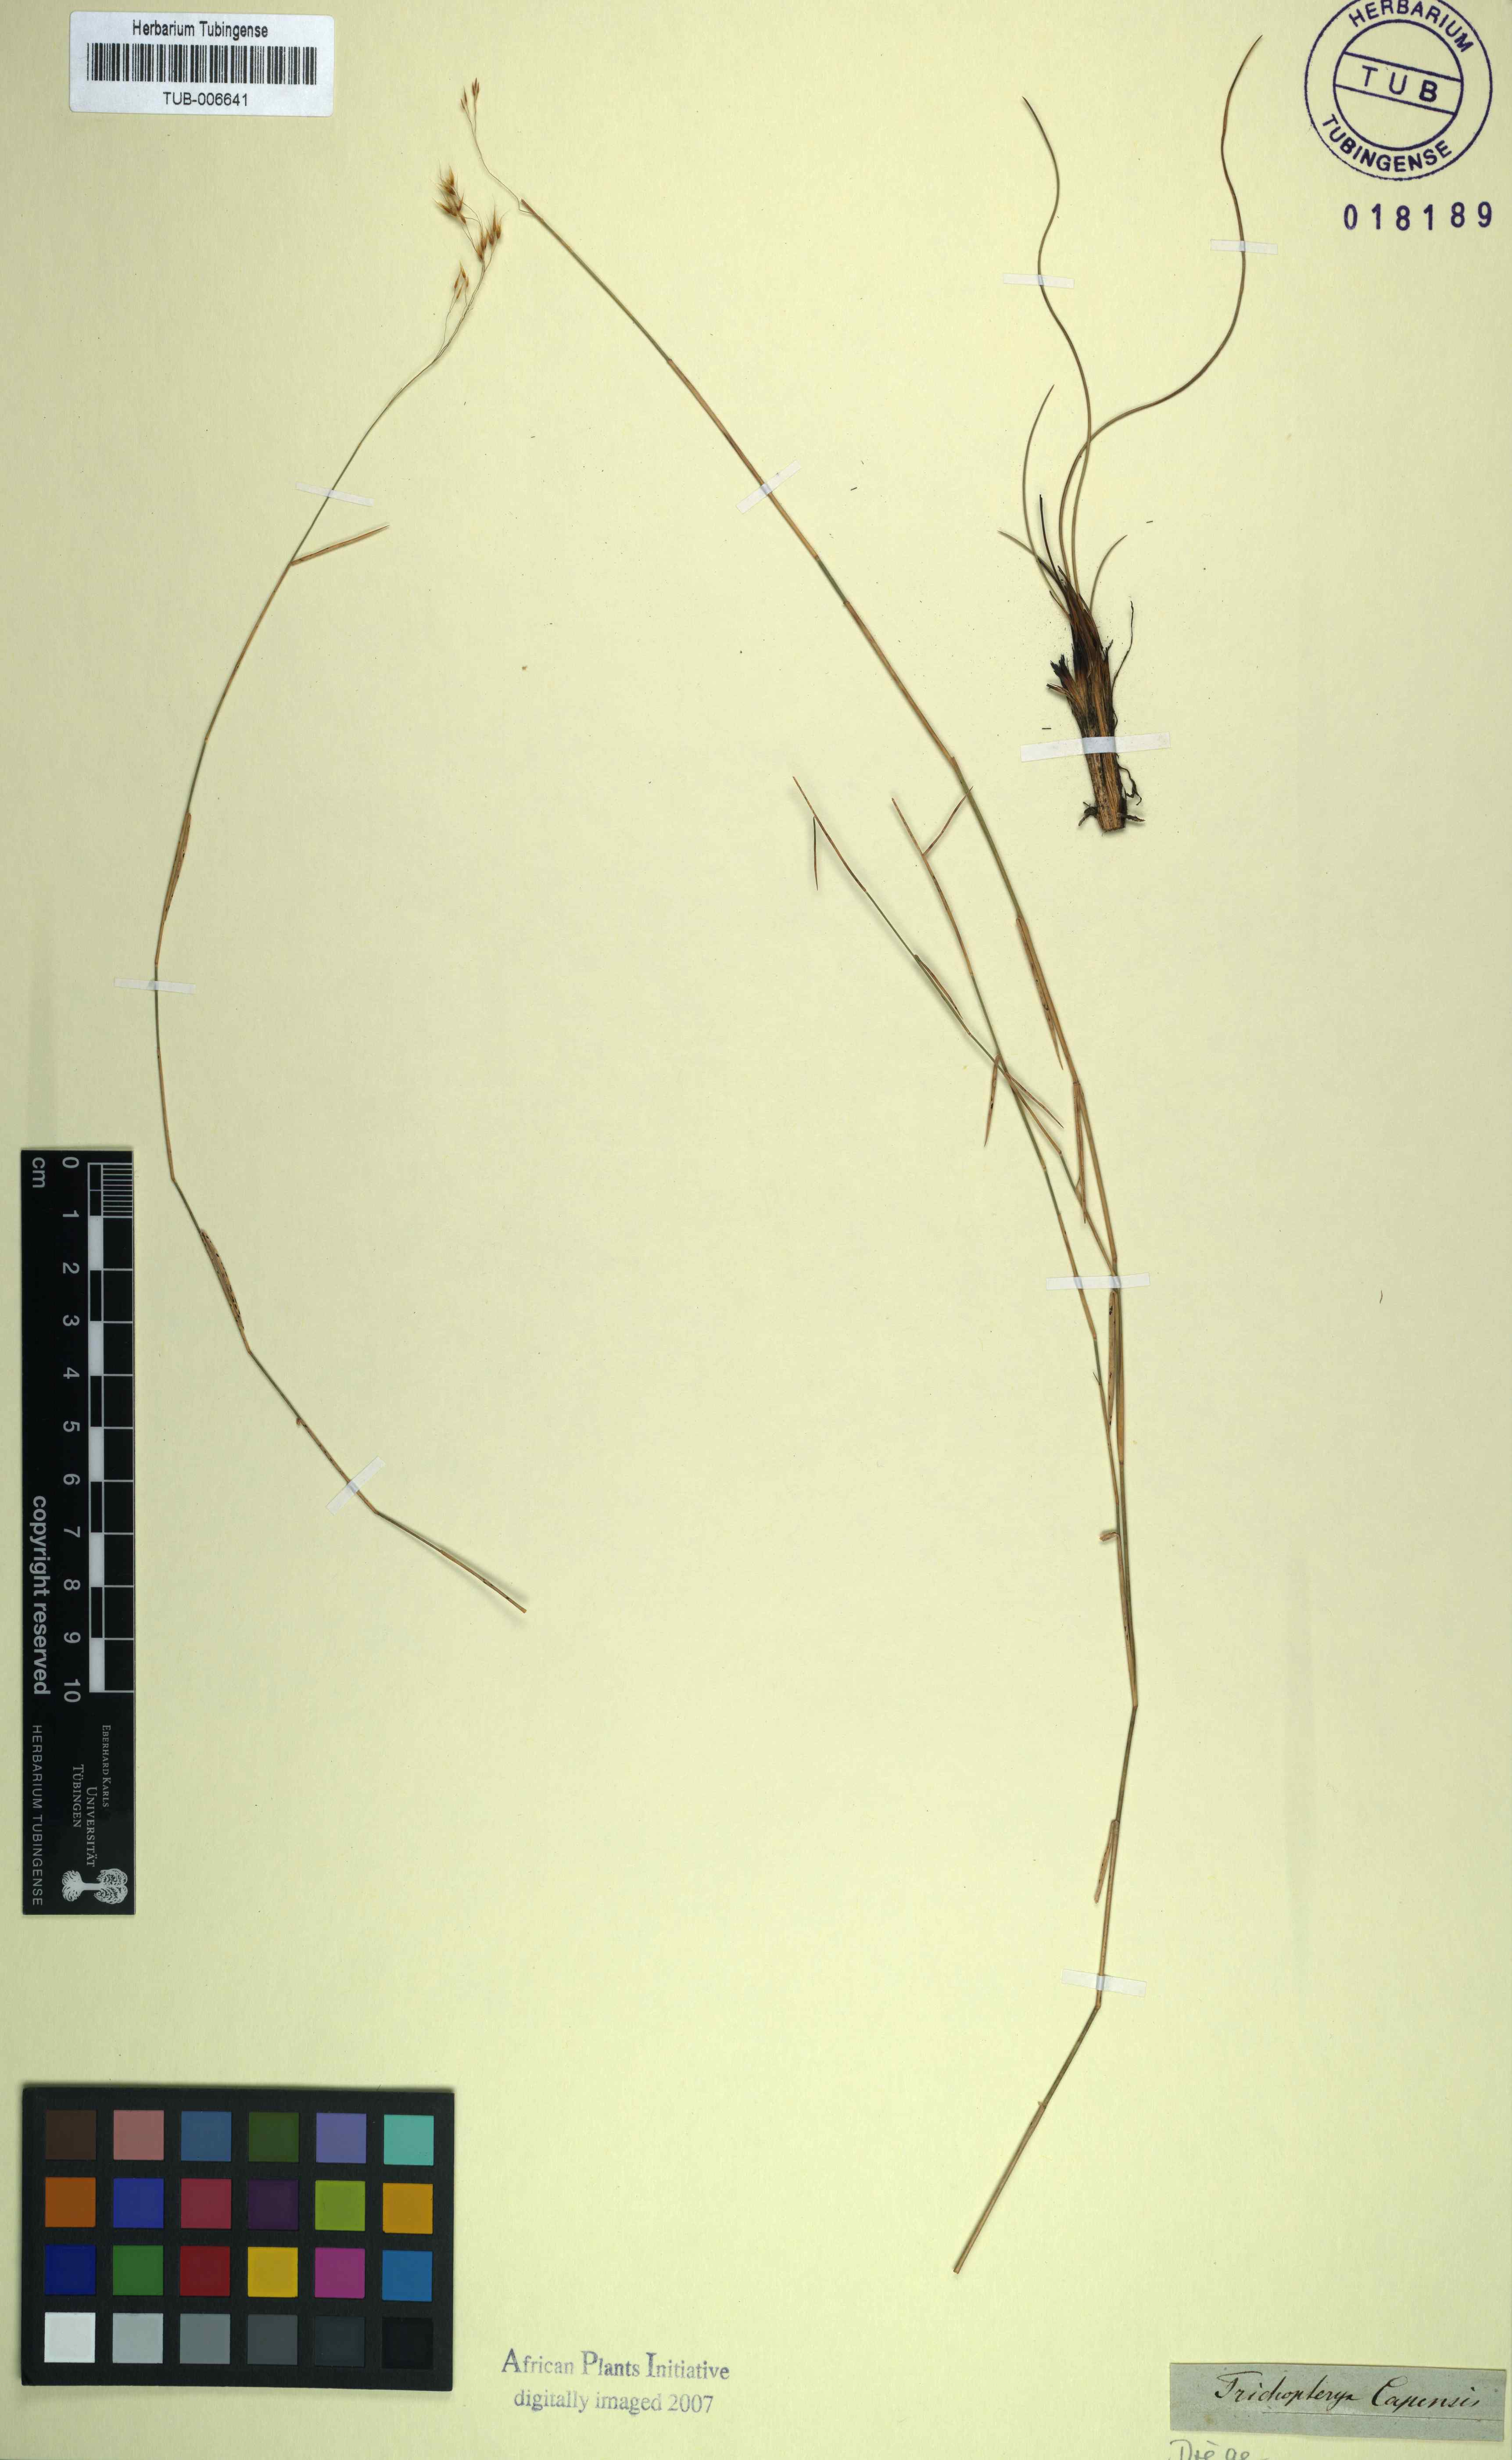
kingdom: Plantae
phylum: Tracheophyta
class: Liliopsida
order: Poales
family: Poaceae
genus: Trichopteryx
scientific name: Trichopteryx
